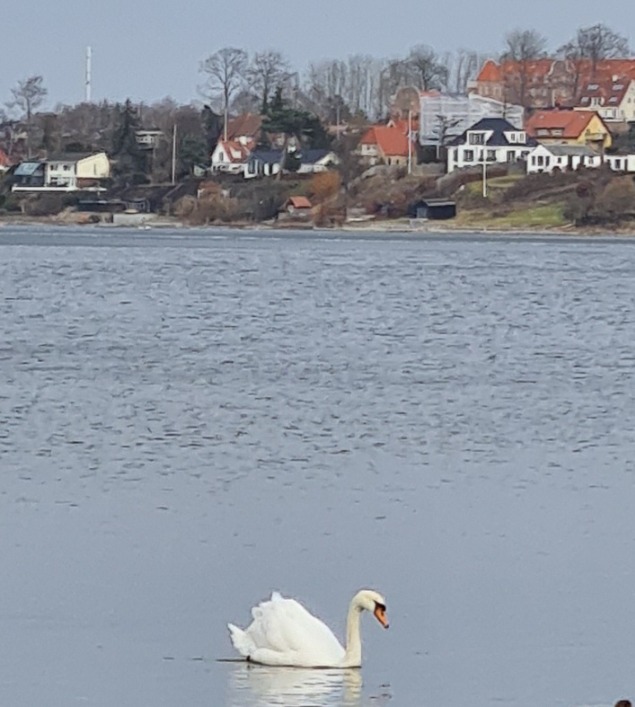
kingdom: Animalia
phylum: Chordata
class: Aves
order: Anseriformes
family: Anatidae
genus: Cygnus
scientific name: Cygnus olor
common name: Knopsvane
